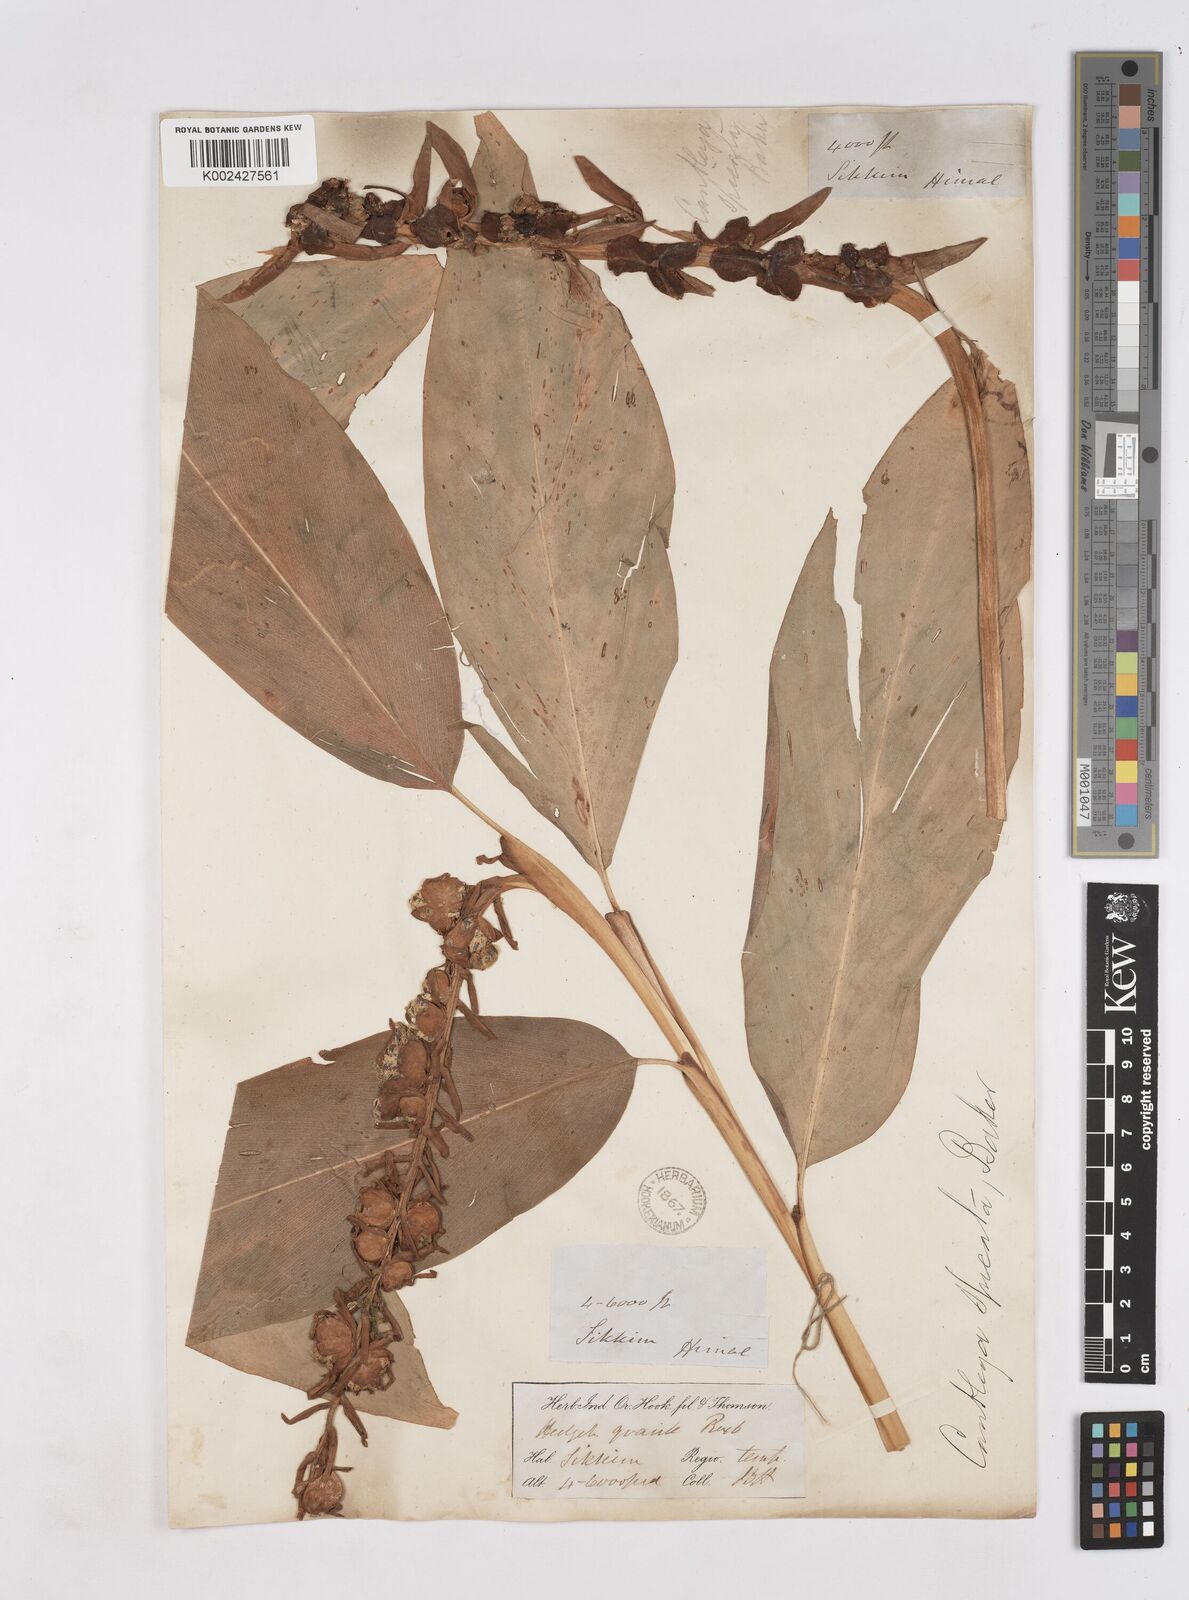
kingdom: Plantae
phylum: Tracheophyta
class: Liliopsida
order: Zingiberales
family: Zingiberaceae
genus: Cautleya
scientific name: Cautleya spicata
